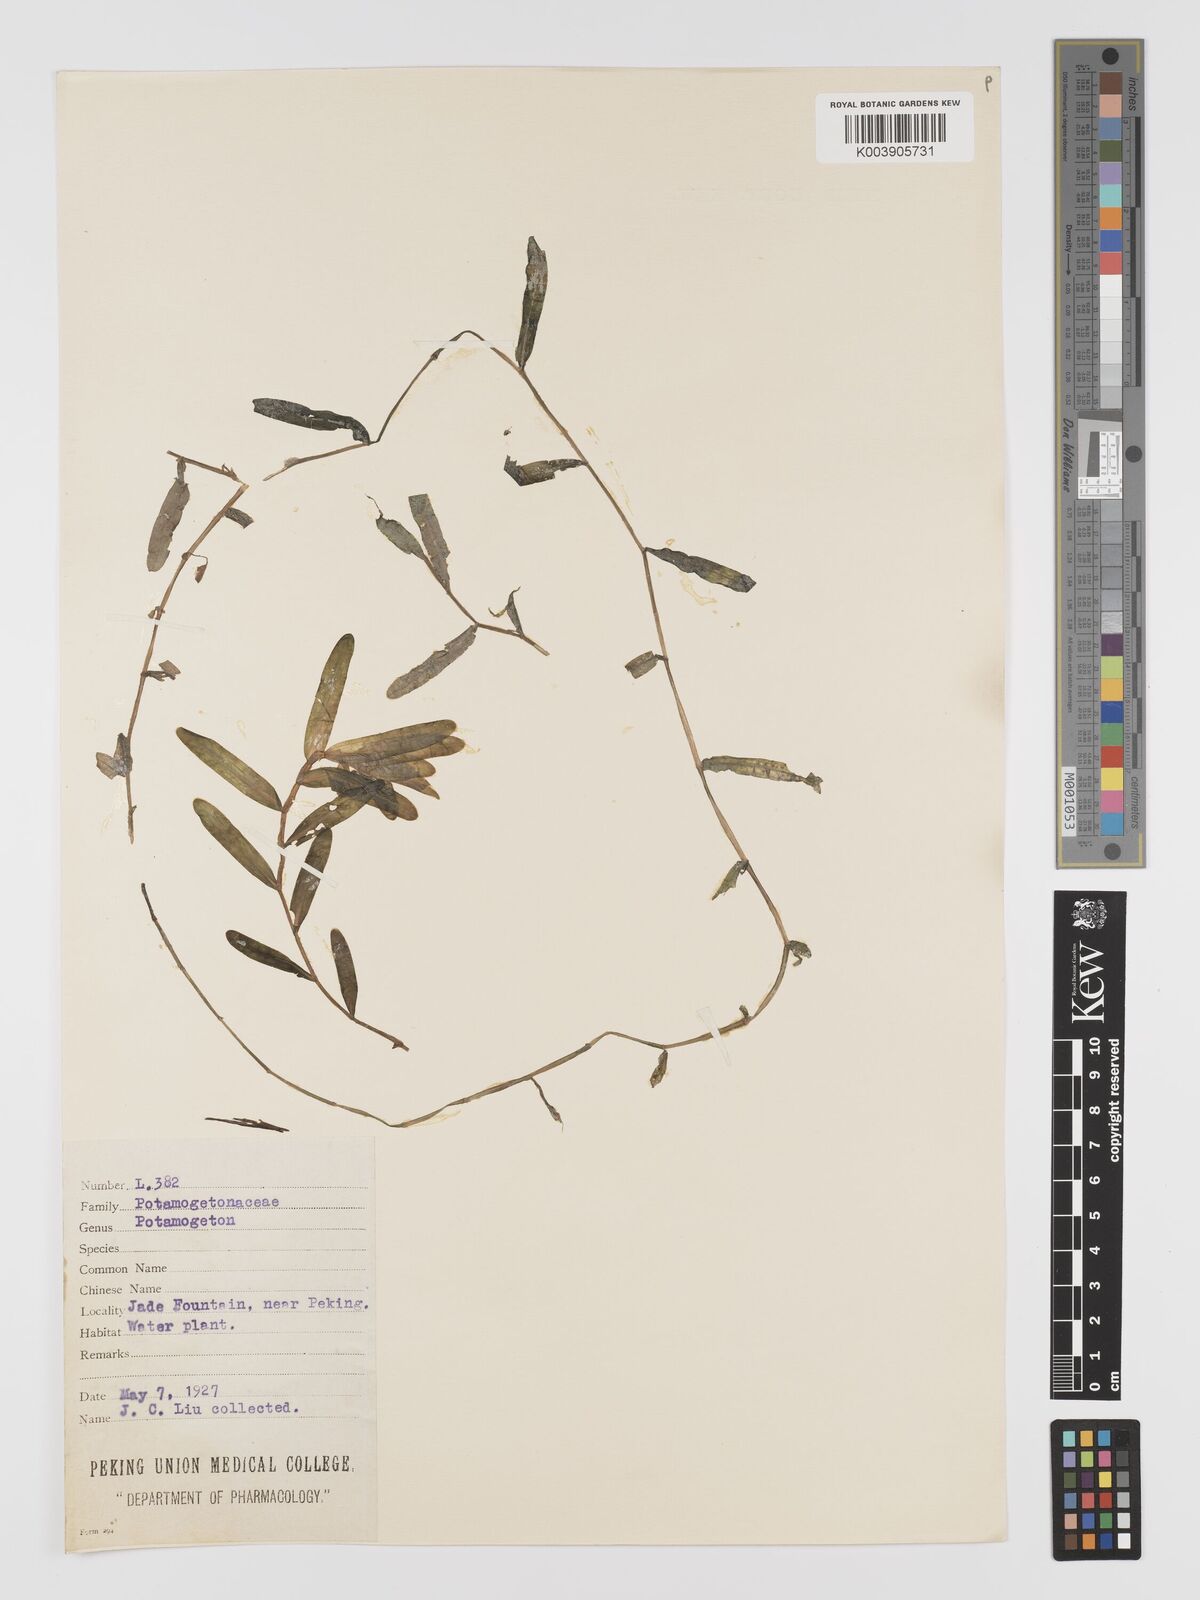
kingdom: Plantae
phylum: Tracheophyta
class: Liliopsida
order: Alismatales
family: Potamogetonaceae
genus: Potamogeton
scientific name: Potamogeton crispus
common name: Curled pondweed
